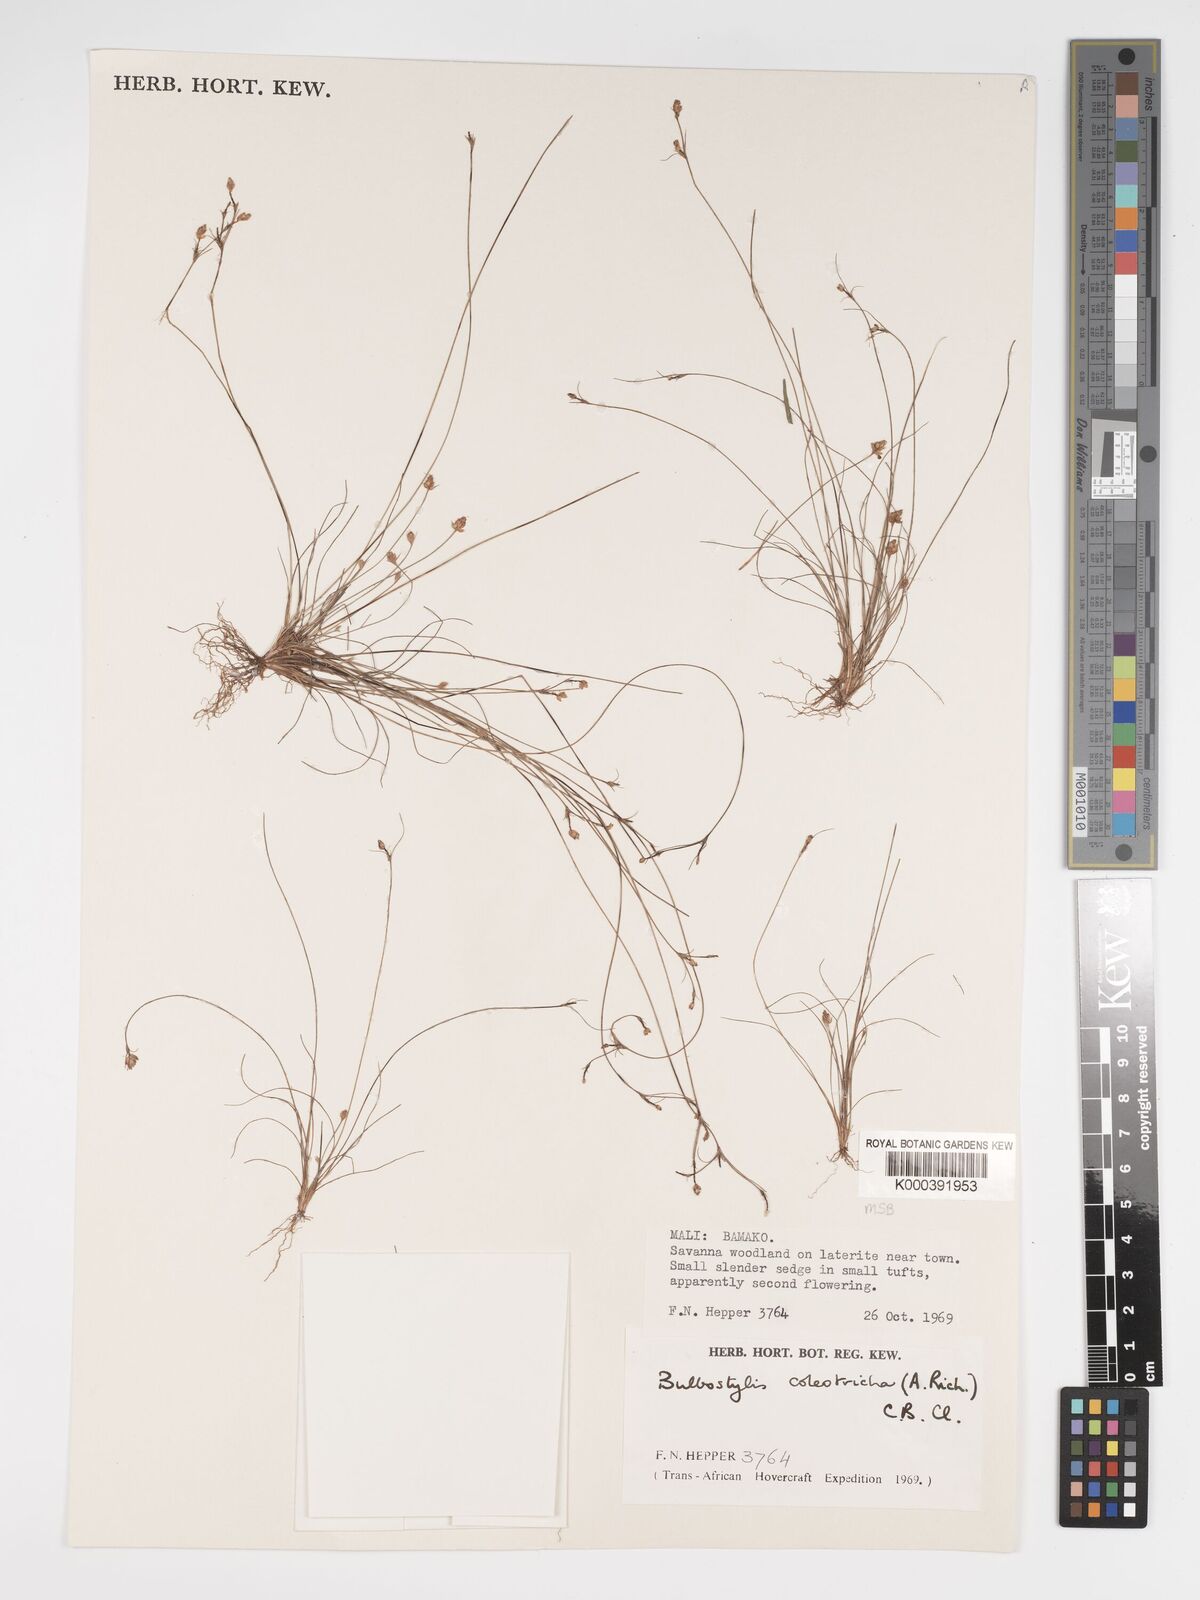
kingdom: Plantae
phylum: Tracheophyta
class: Liliopsida
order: Poales
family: Cyperaceae
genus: Bulbostylis
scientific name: Bulbostylis coleotricha
